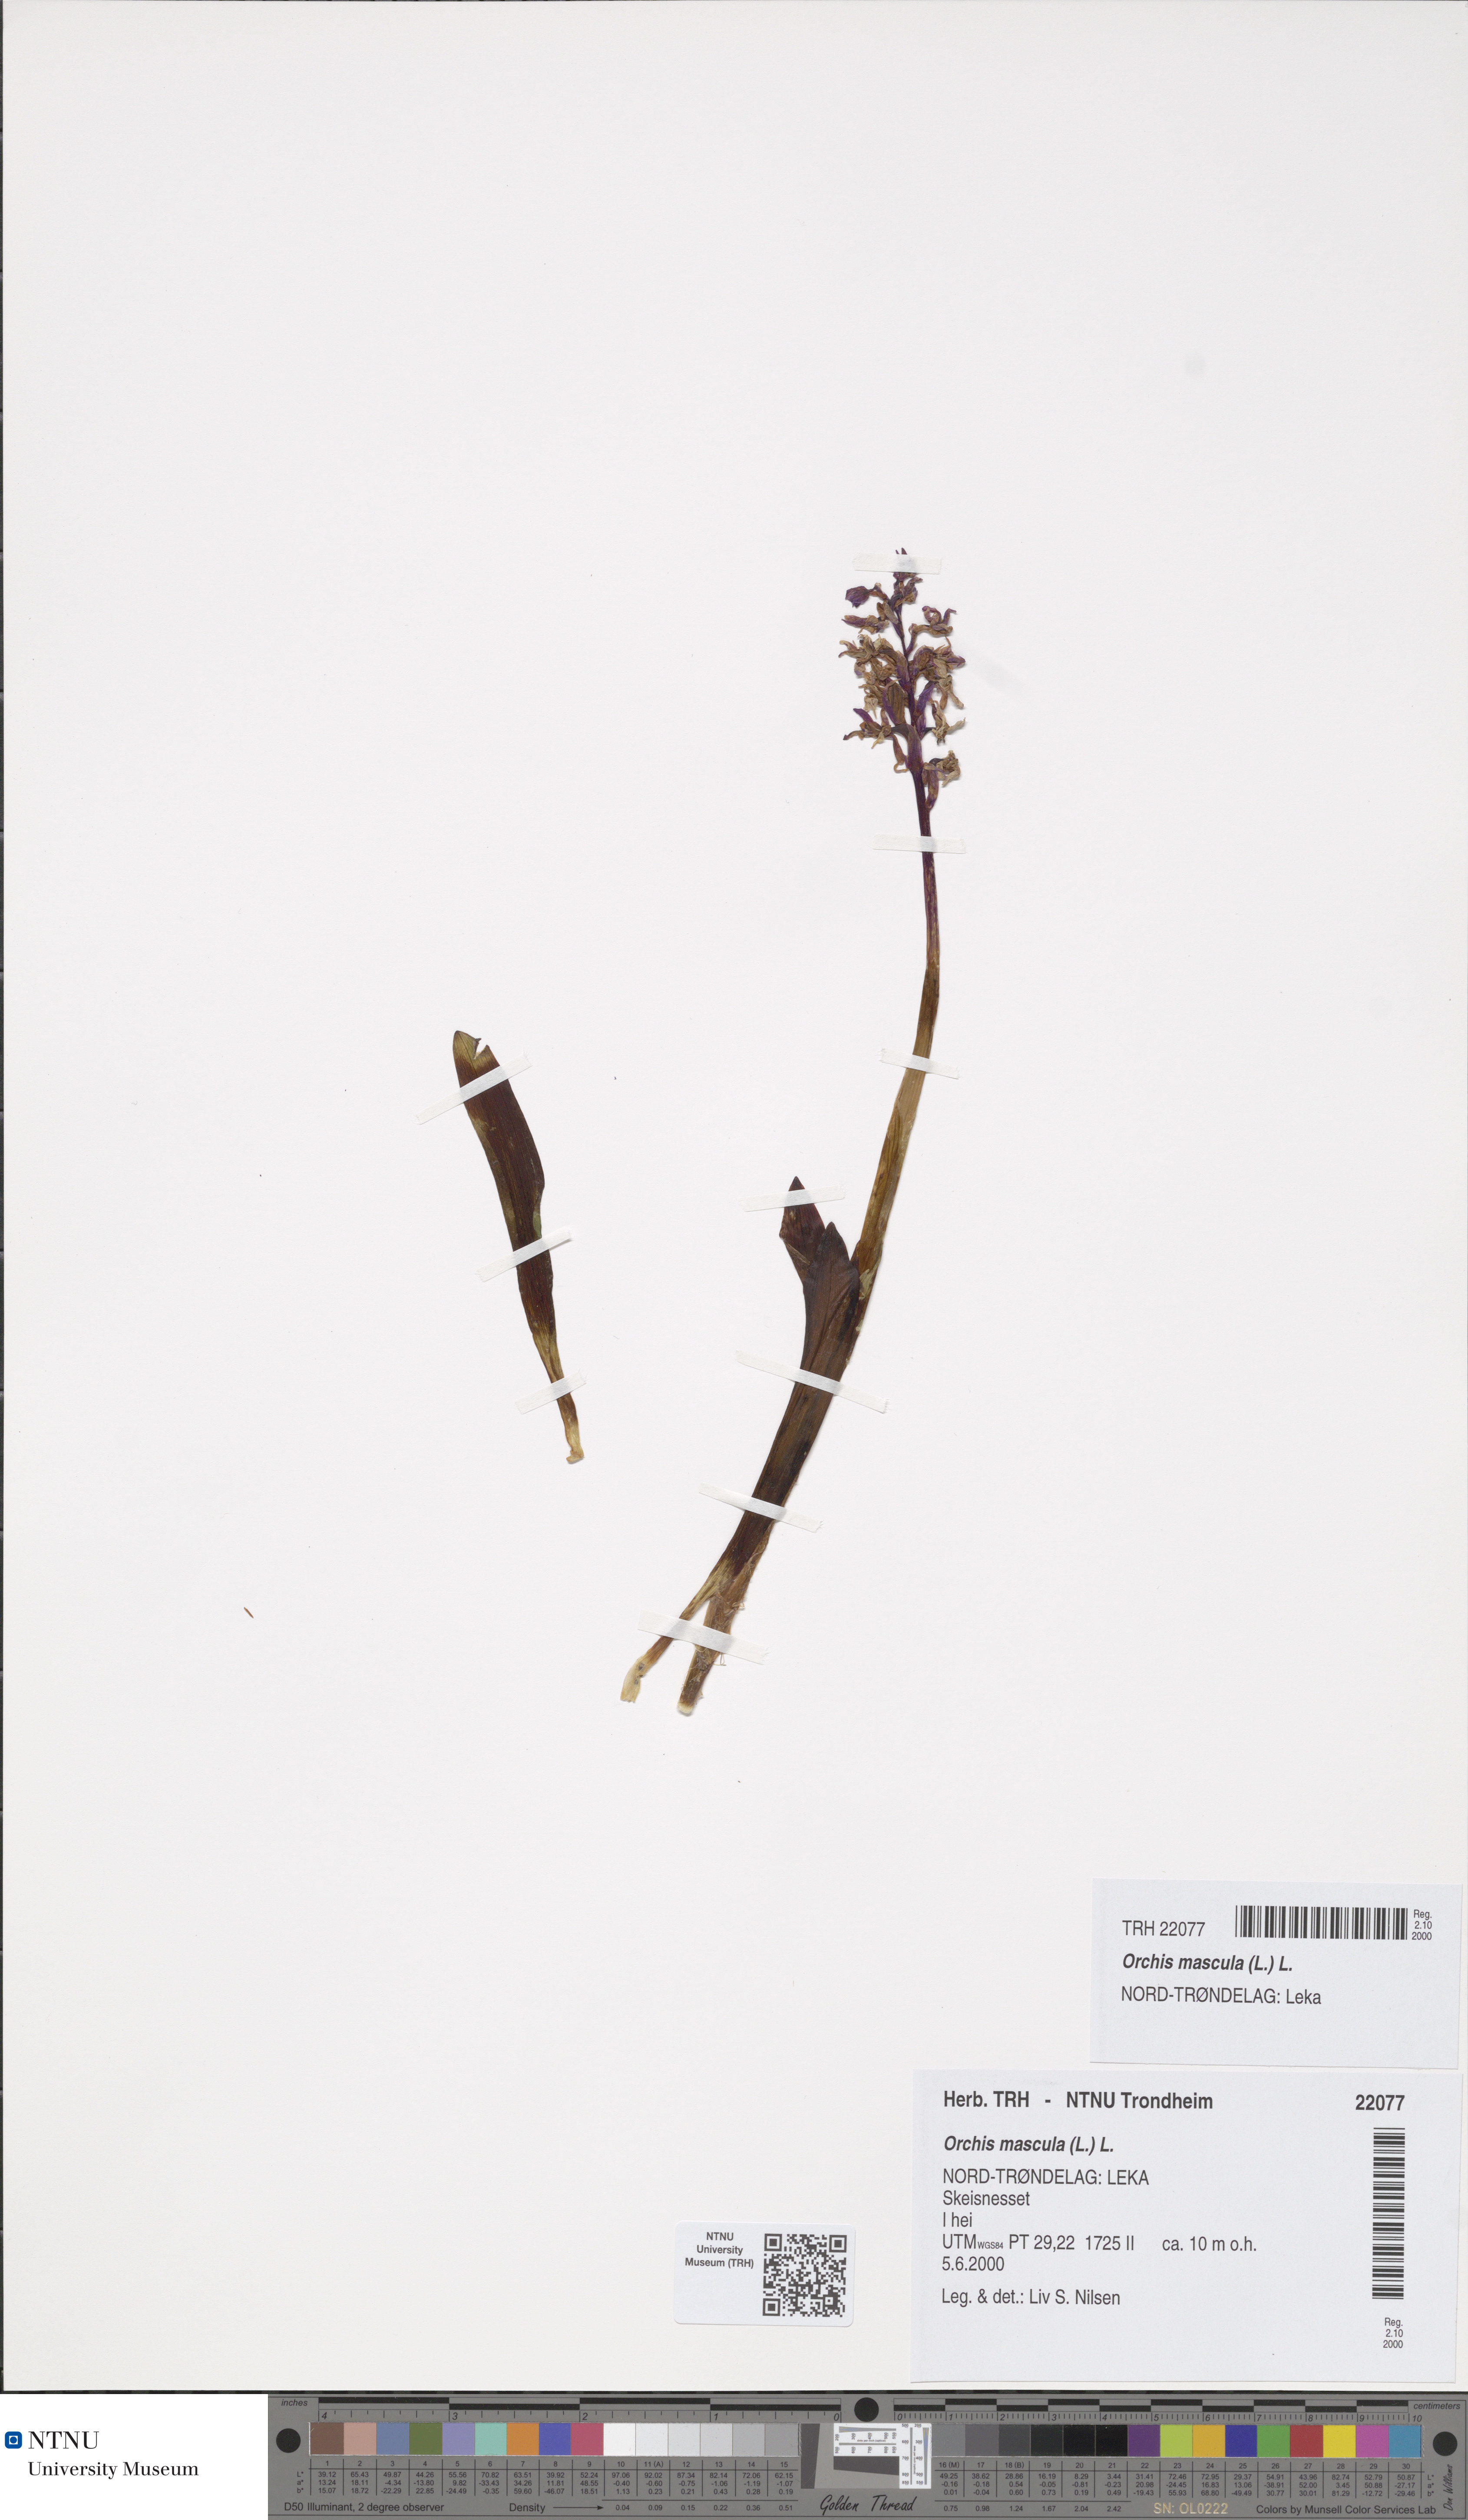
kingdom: Plantae
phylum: Tracheophyta
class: Liliopsida
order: Asparagales
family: Orchidaceae
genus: Orchis
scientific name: Orchis mascula
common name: Early-purple orchid
